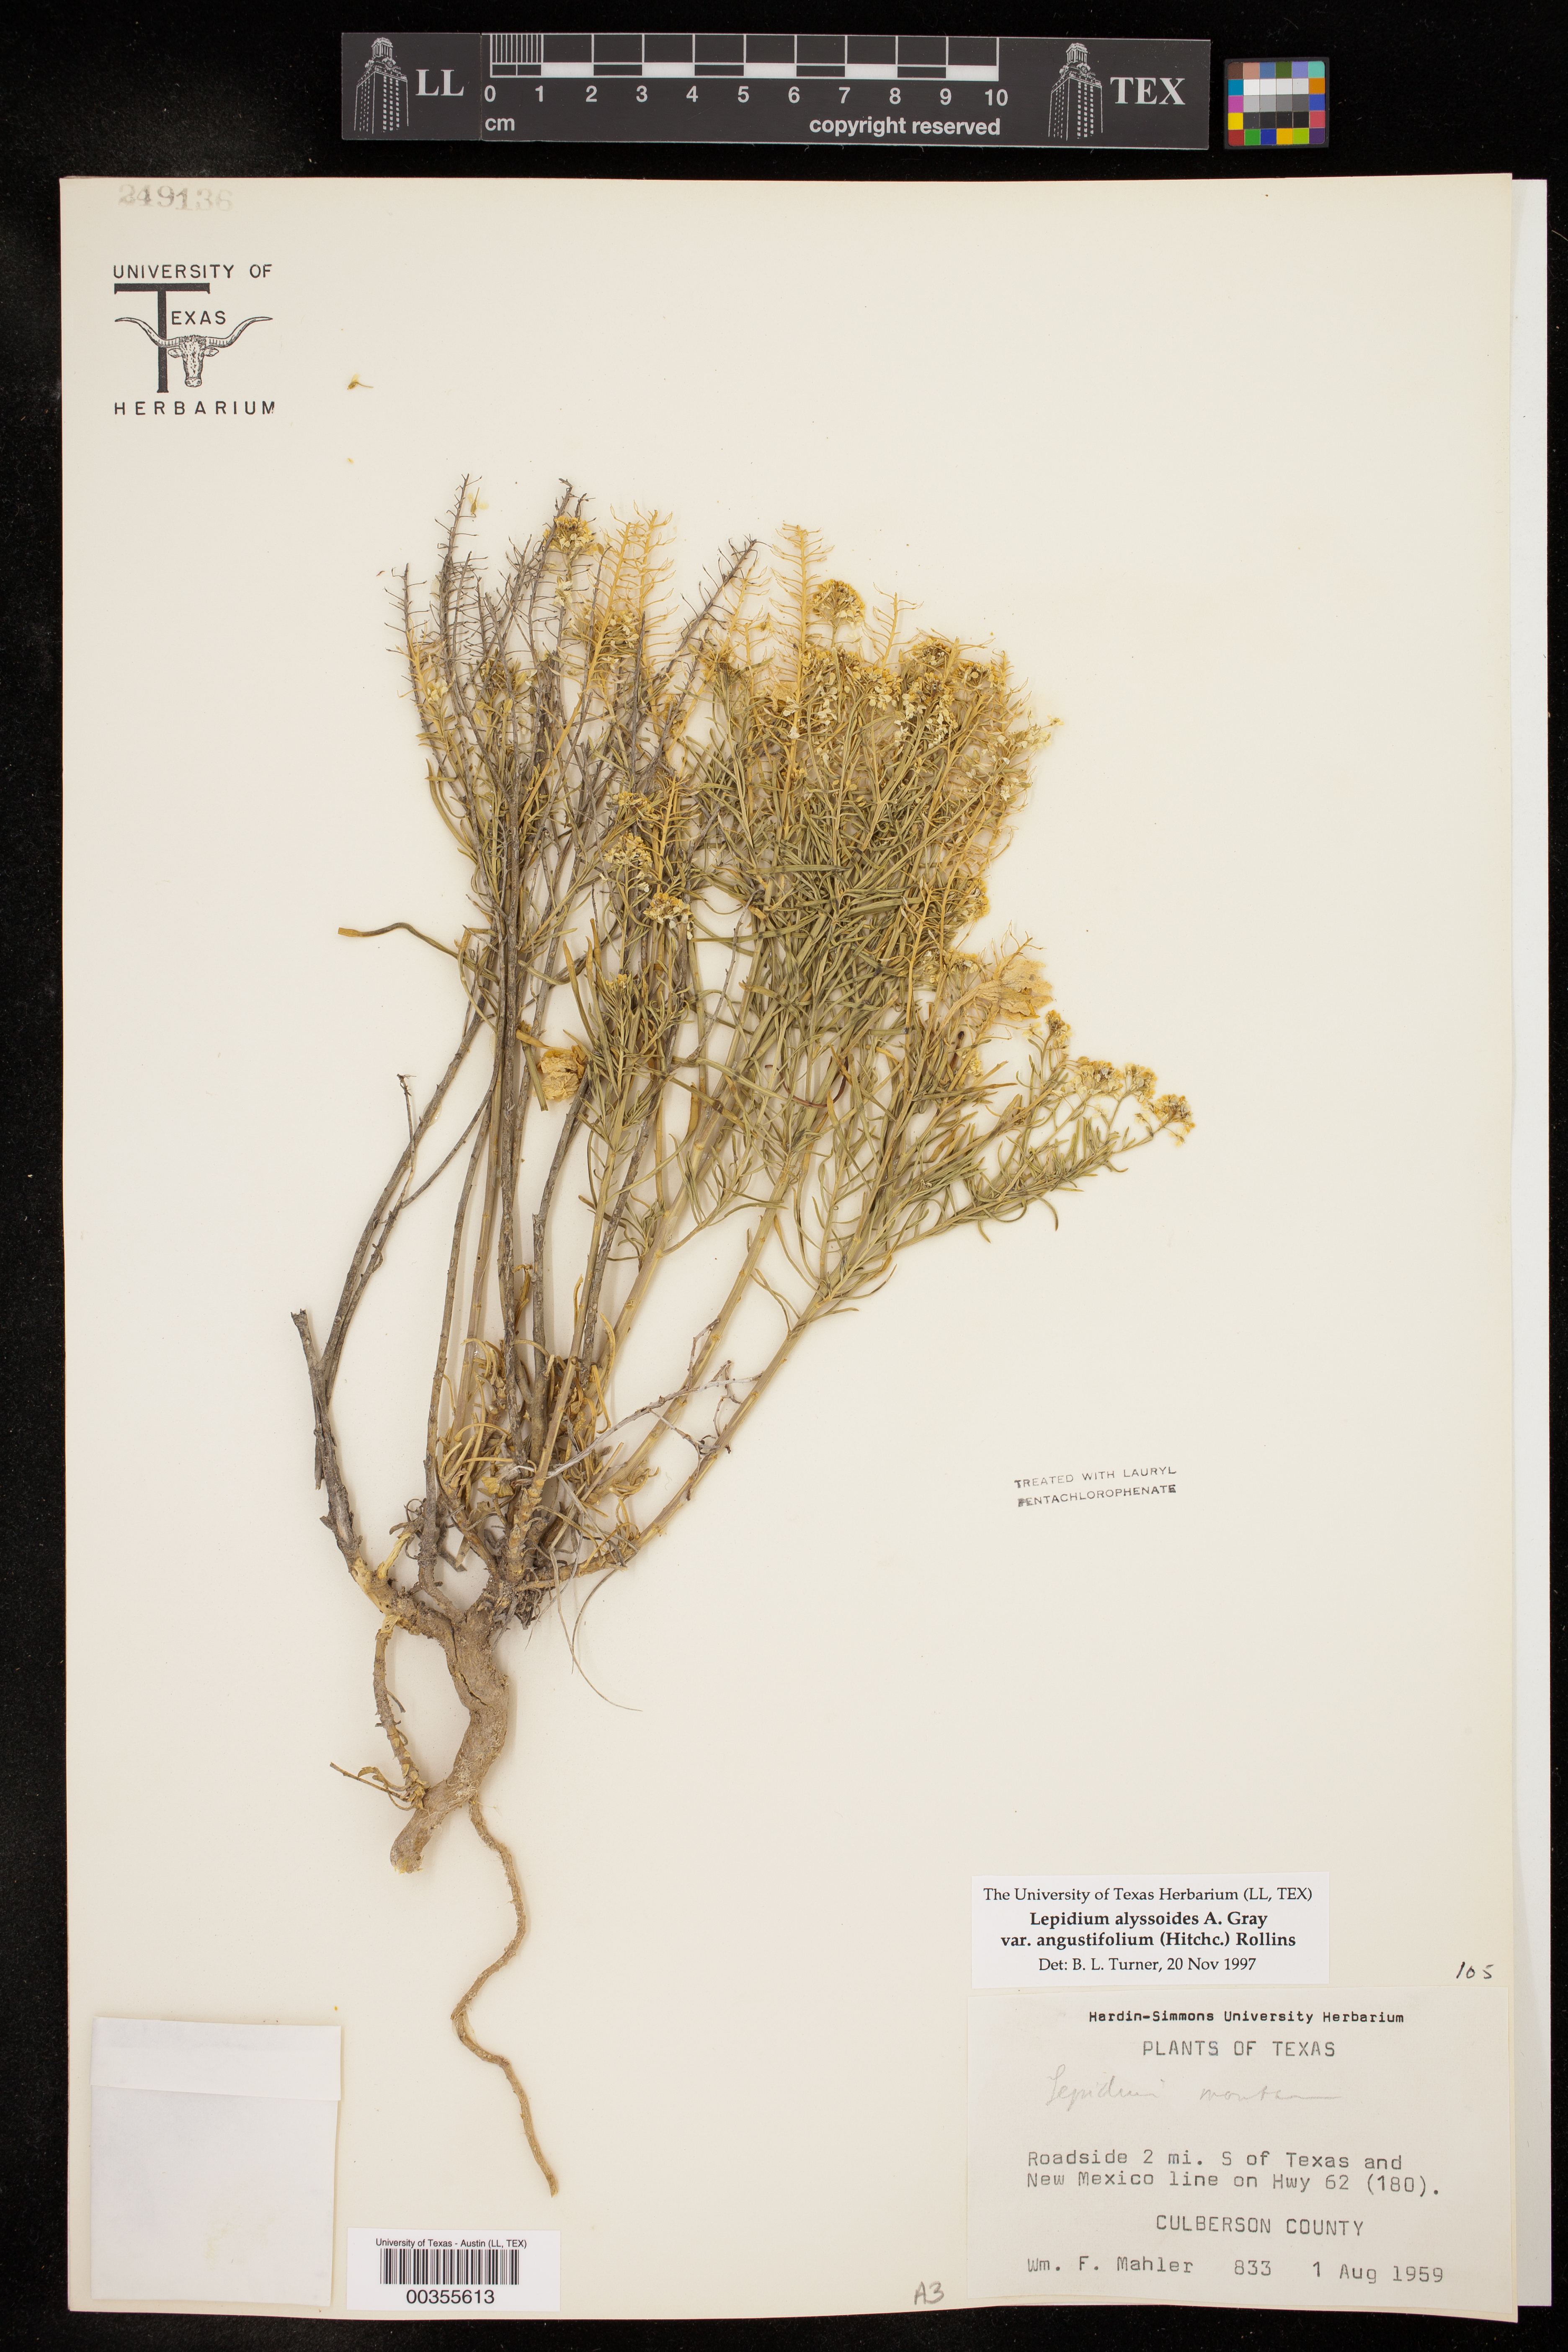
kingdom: Plantae
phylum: Tracheophyta
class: Magnoliopsida
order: Brassicales
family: Brassicaceae
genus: Lepidium
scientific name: Lepidium alyssoides
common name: Mesa pepperweed
